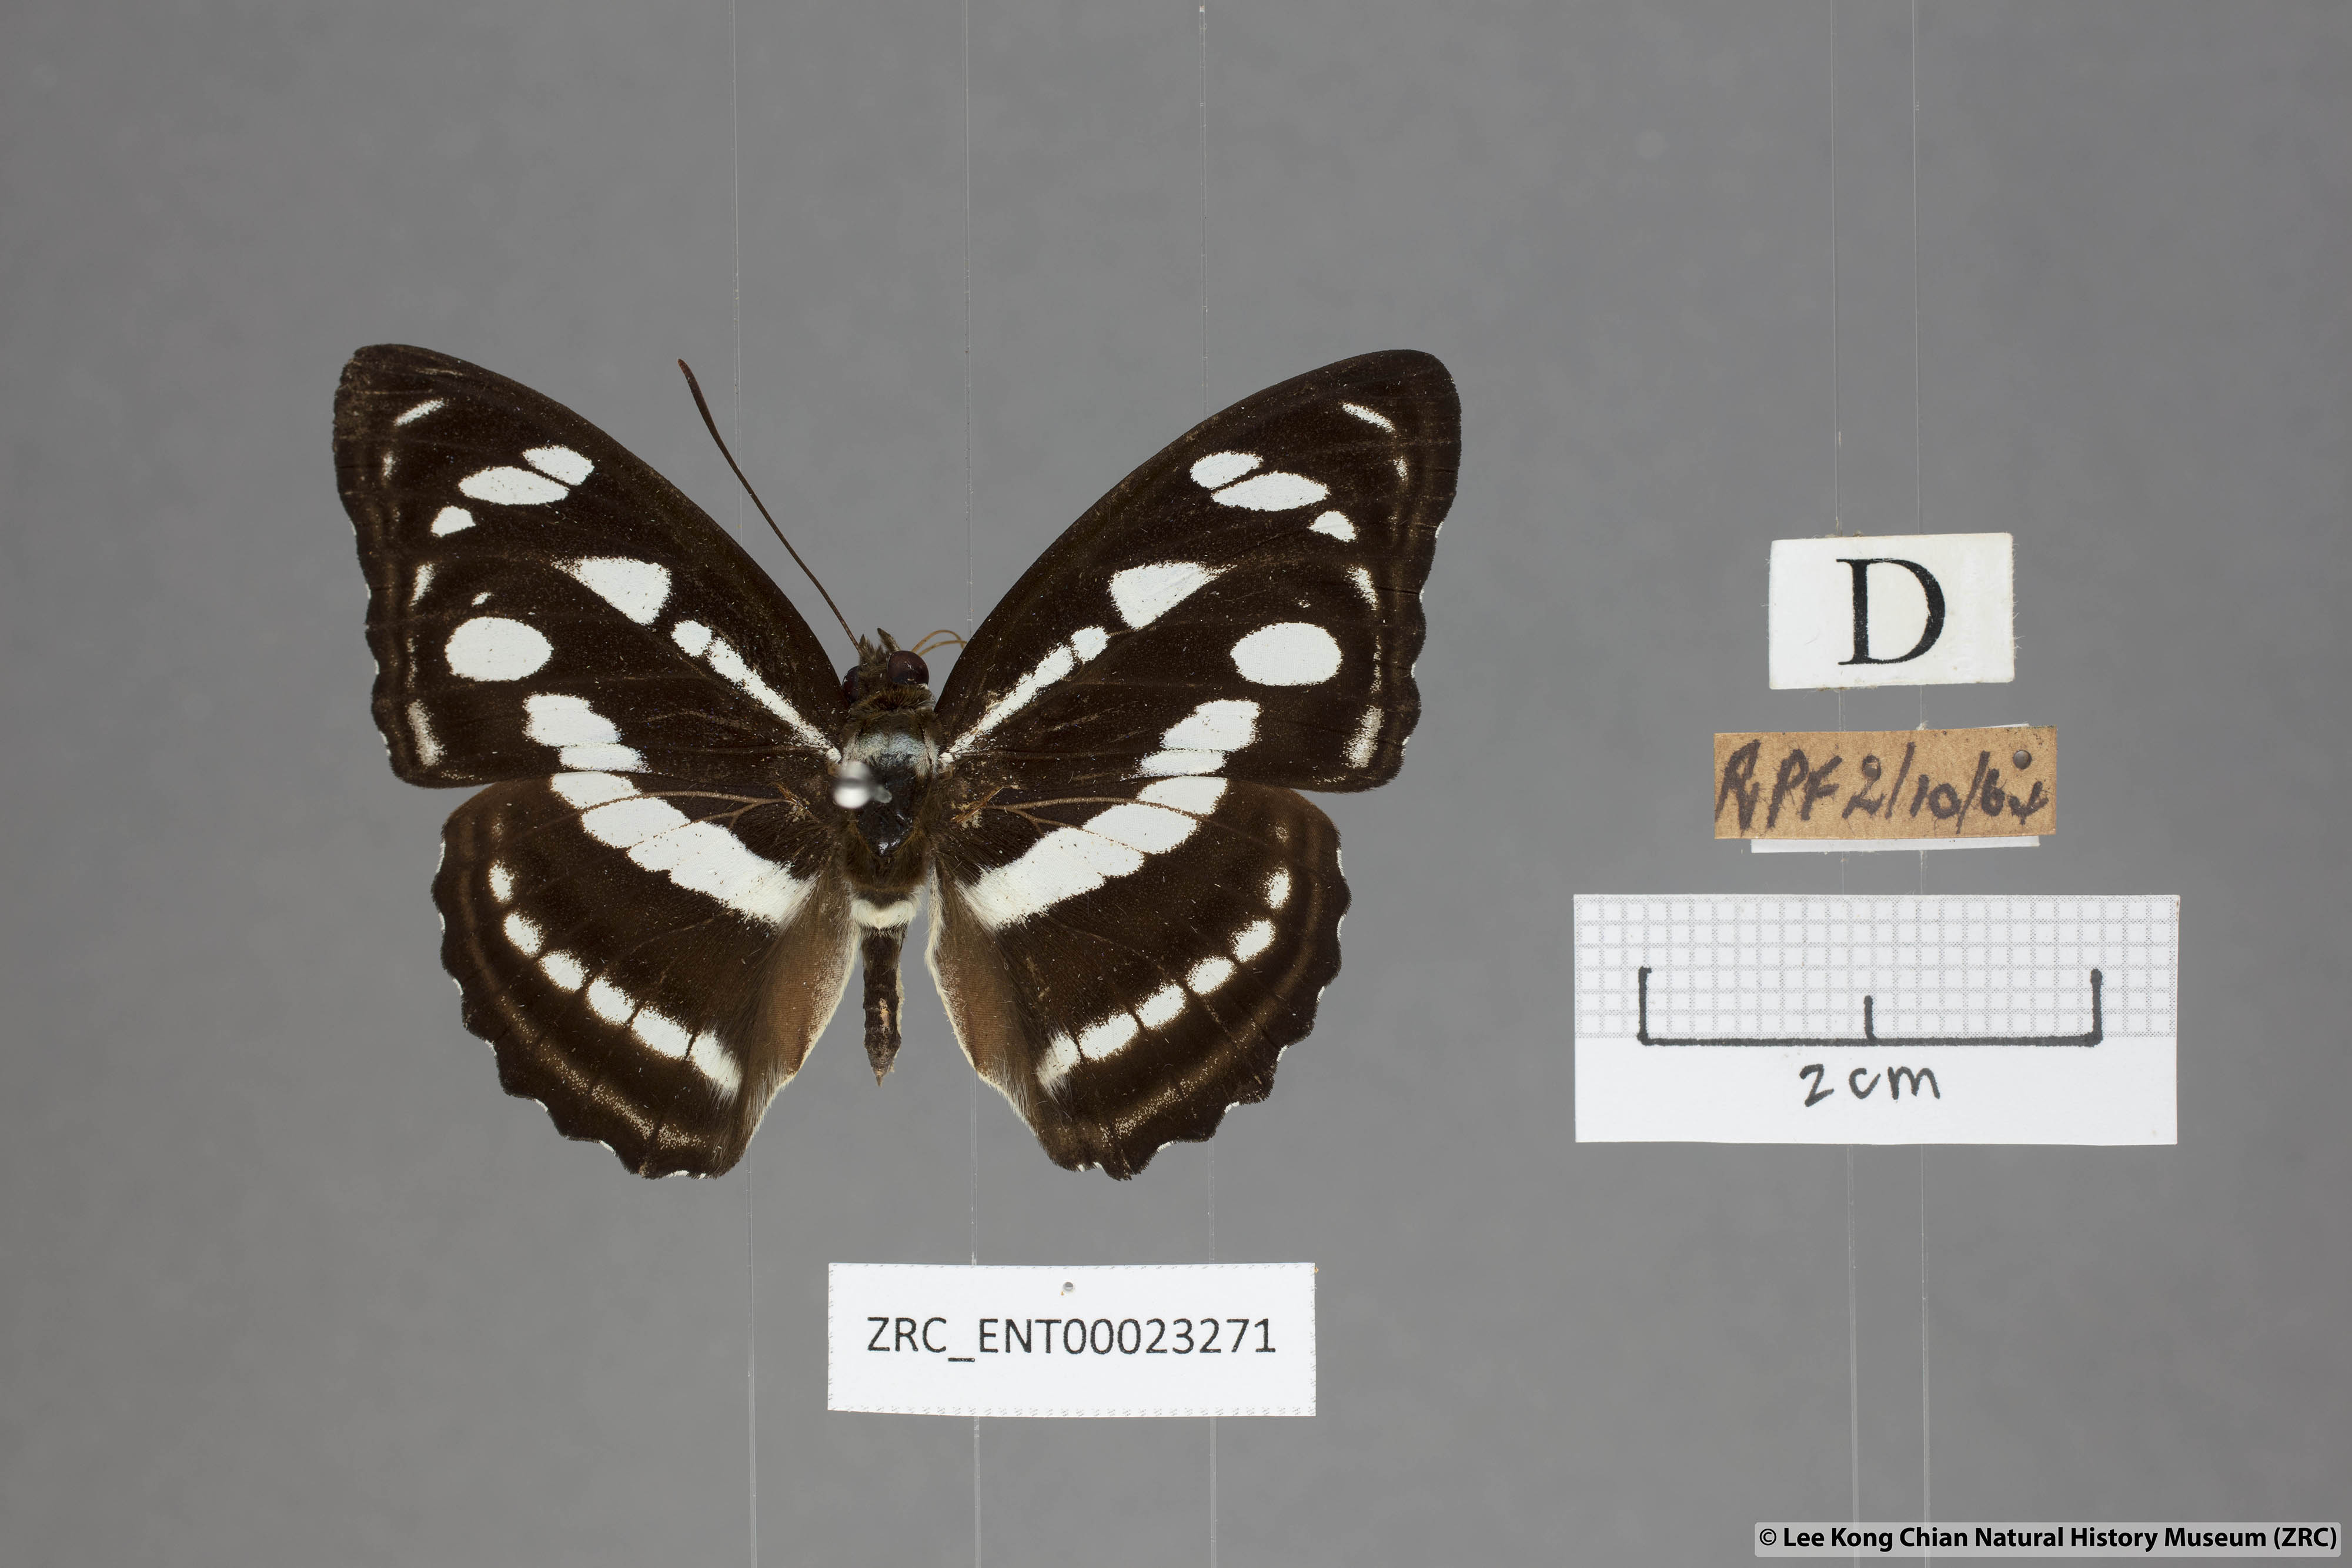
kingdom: Animalia
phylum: Arthropoda
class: Insecta
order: Lepidoptera
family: Nymphalidae
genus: Parathyma
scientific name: Parathyma reta
